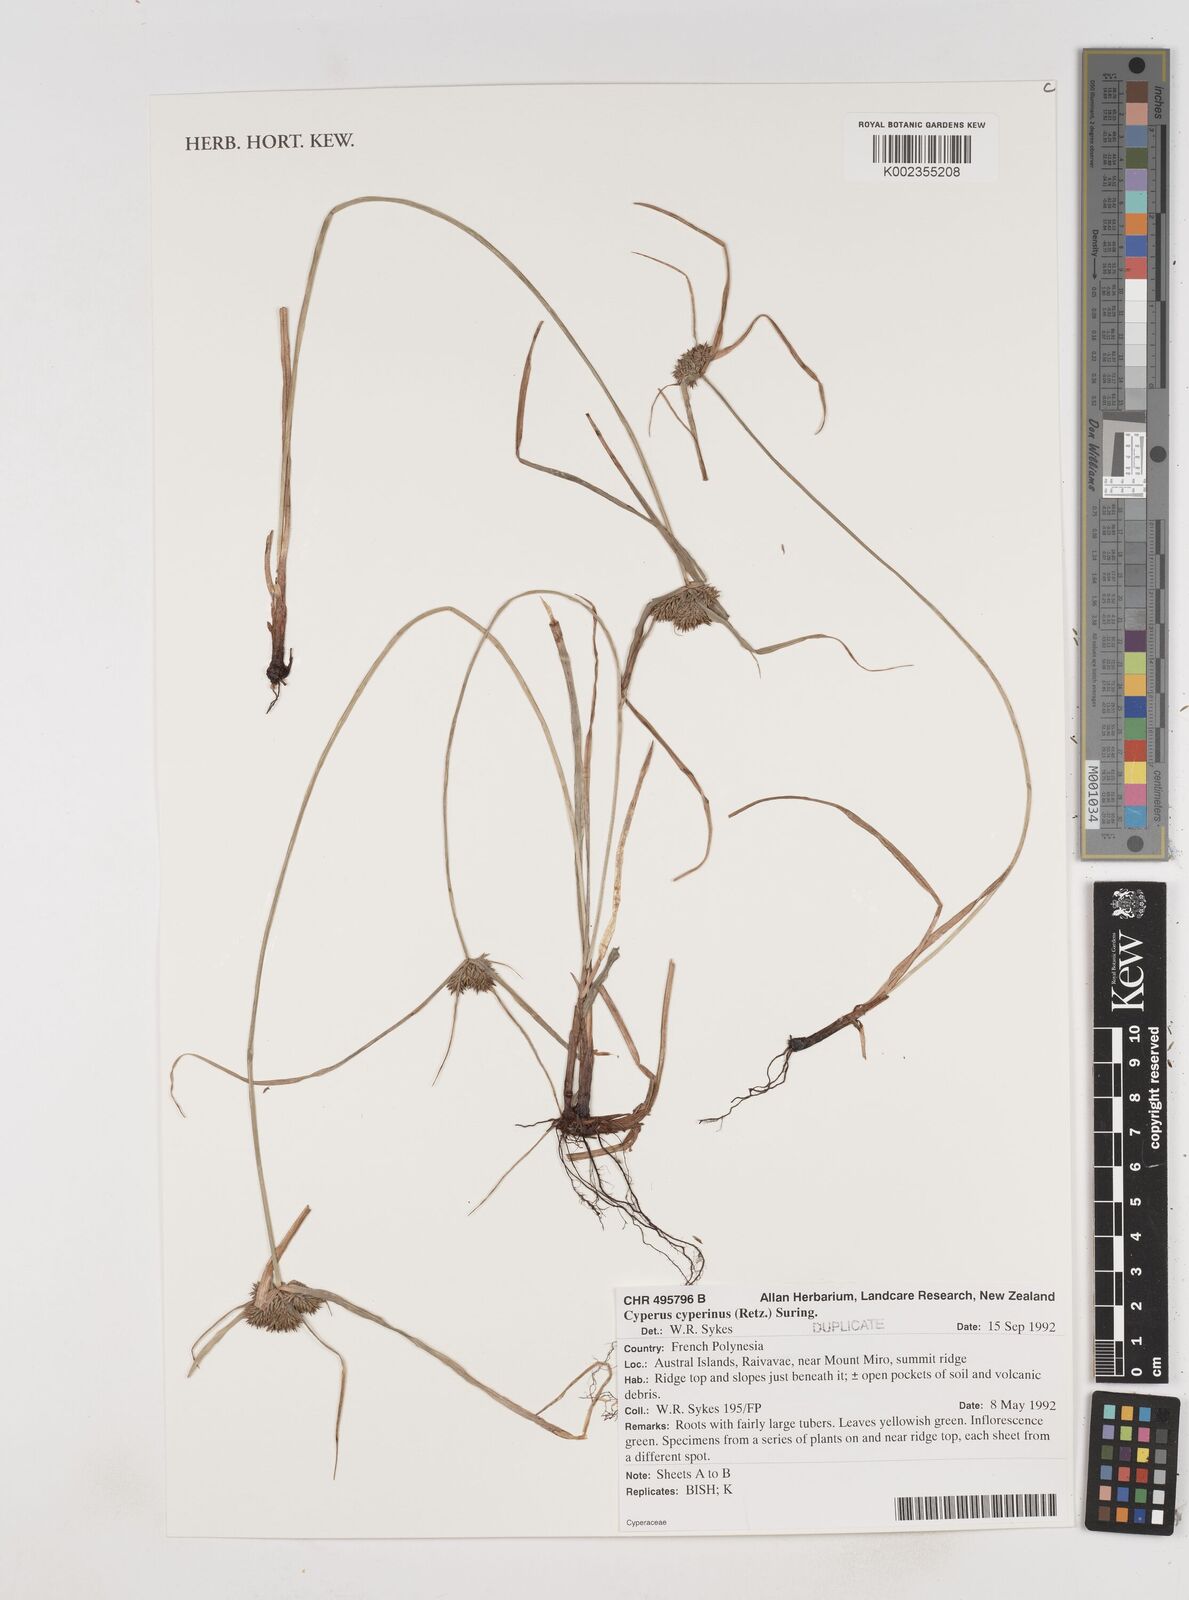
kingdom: Plantae
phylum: Tracheophyta
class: Liliopsida
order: Poales
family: Cyperaceae
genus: Cyperus
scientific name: Cyperus cyperinus
